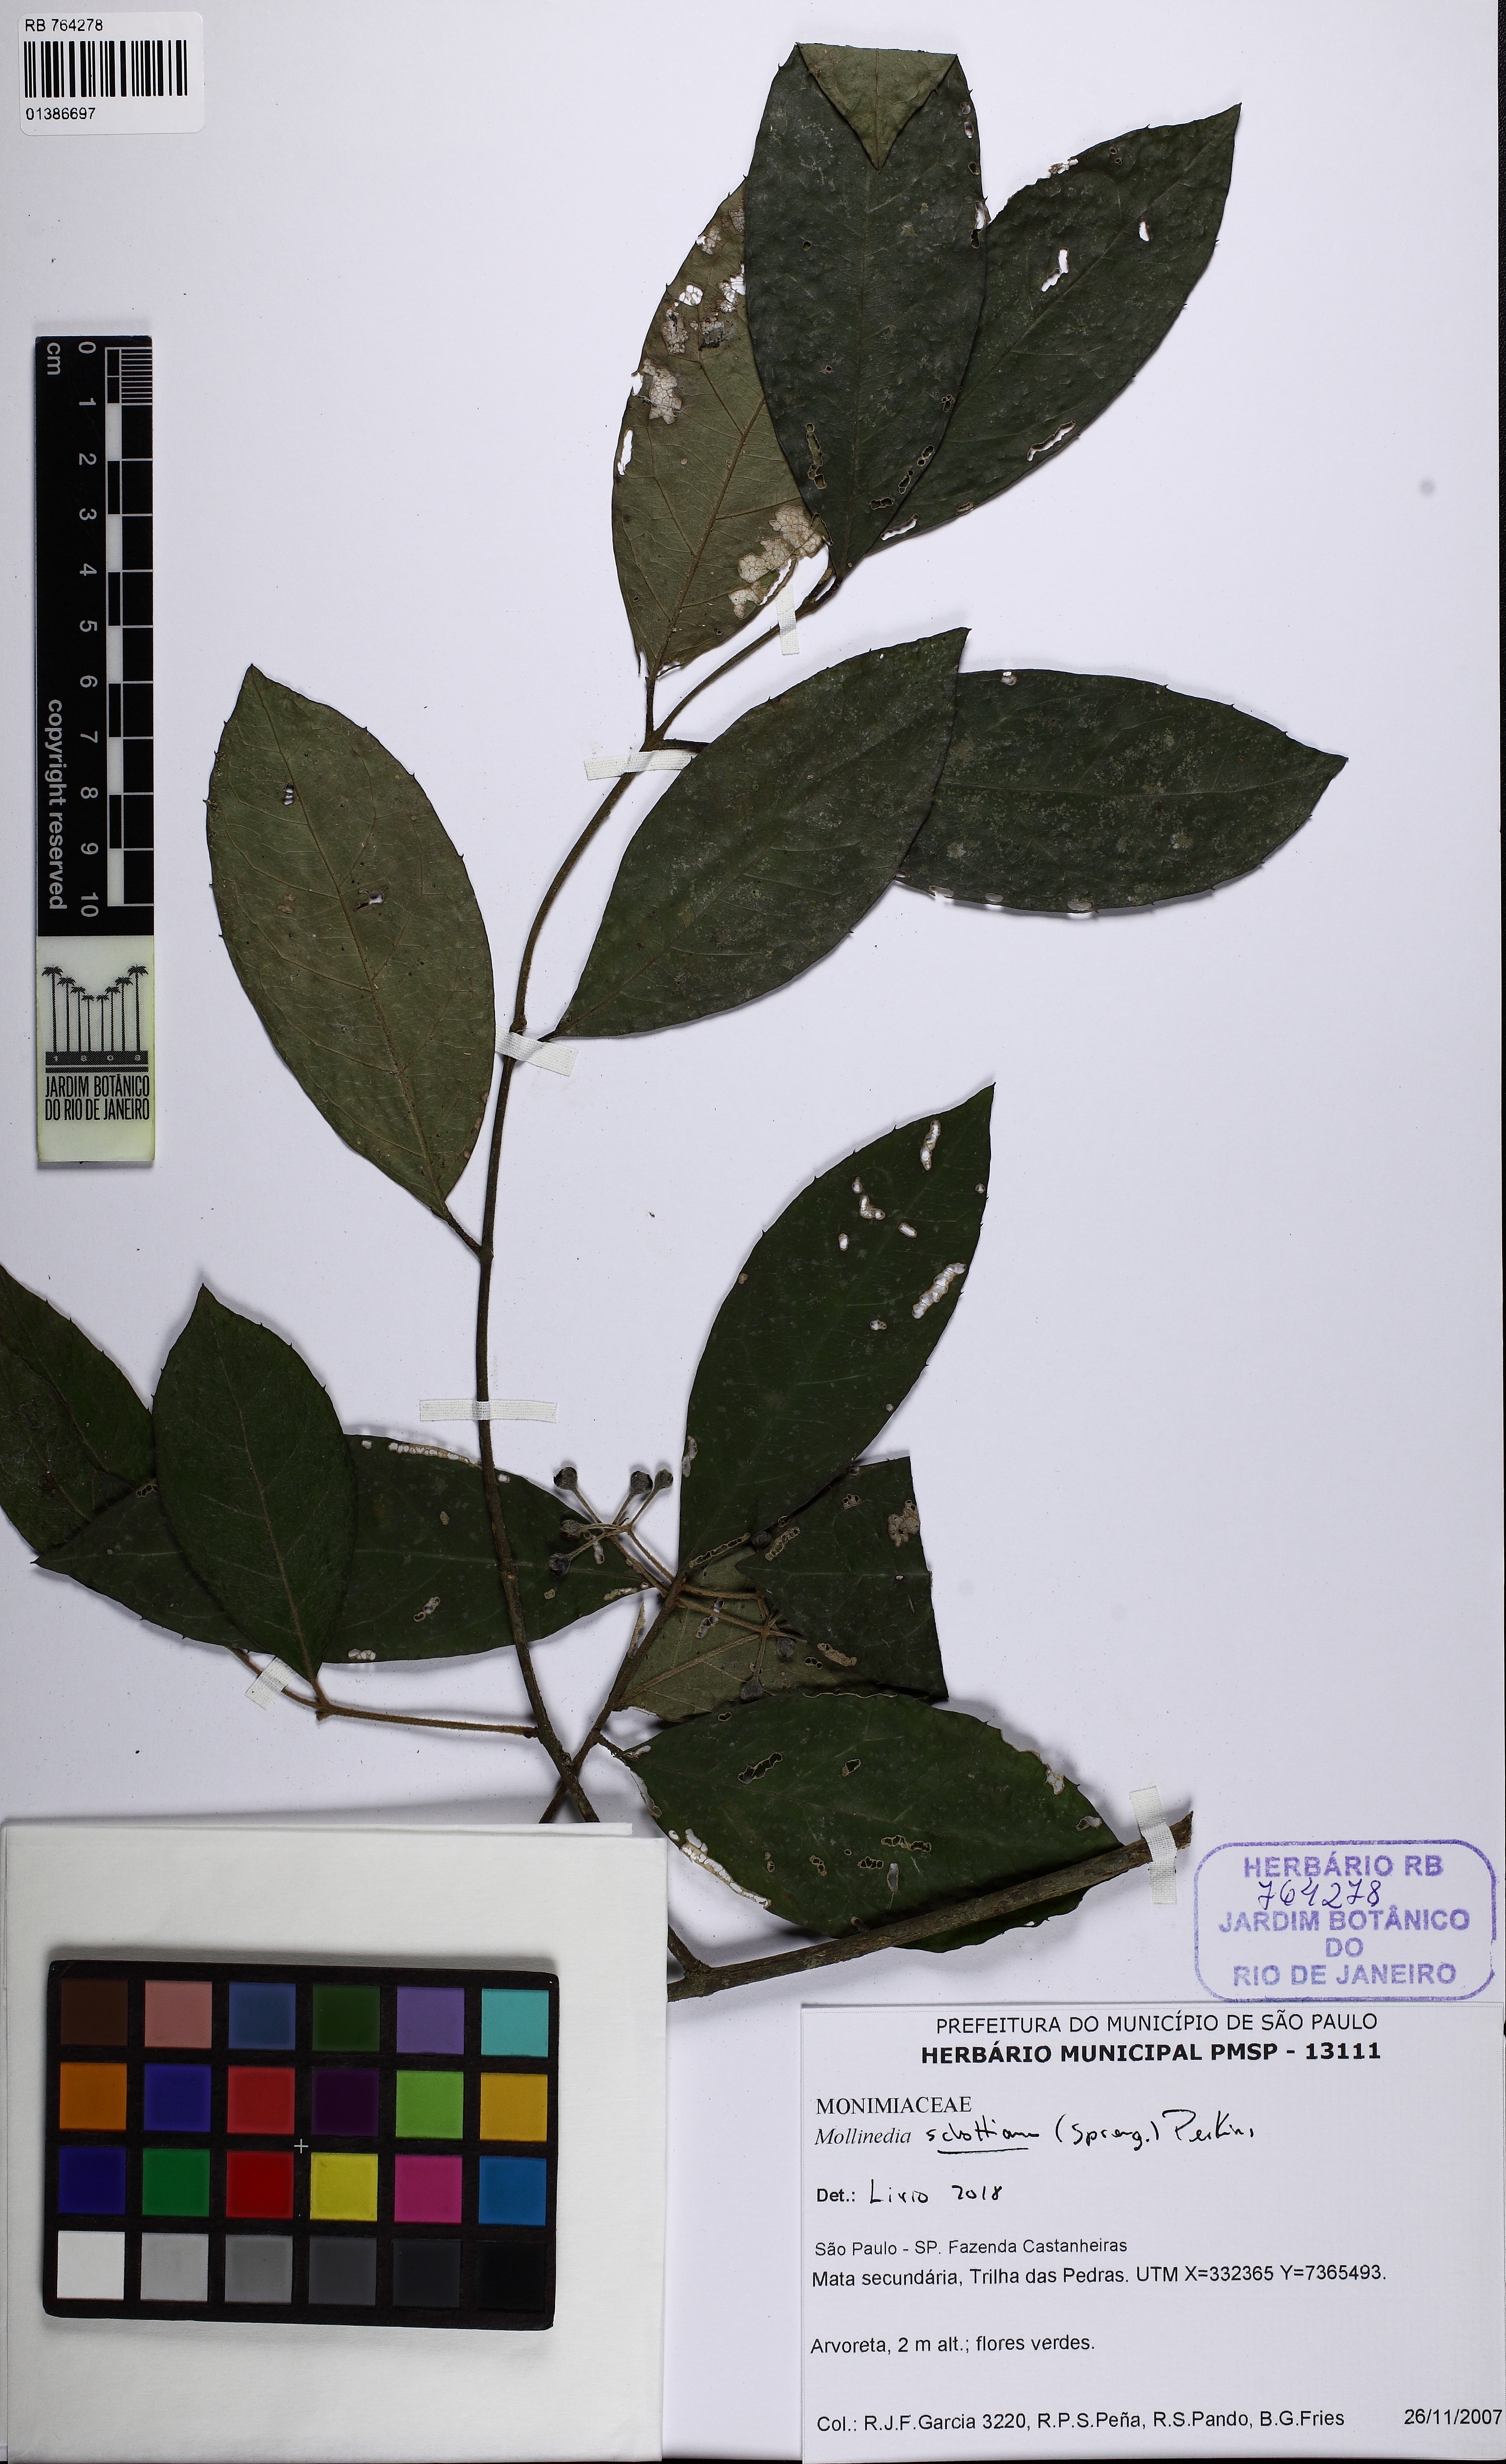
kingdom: Plantae
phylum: Tracheophyta
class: Magnoliopsida
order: Laurales
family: Monimiaceae
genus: Mollinedia
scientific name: Mollinedia umbellata
